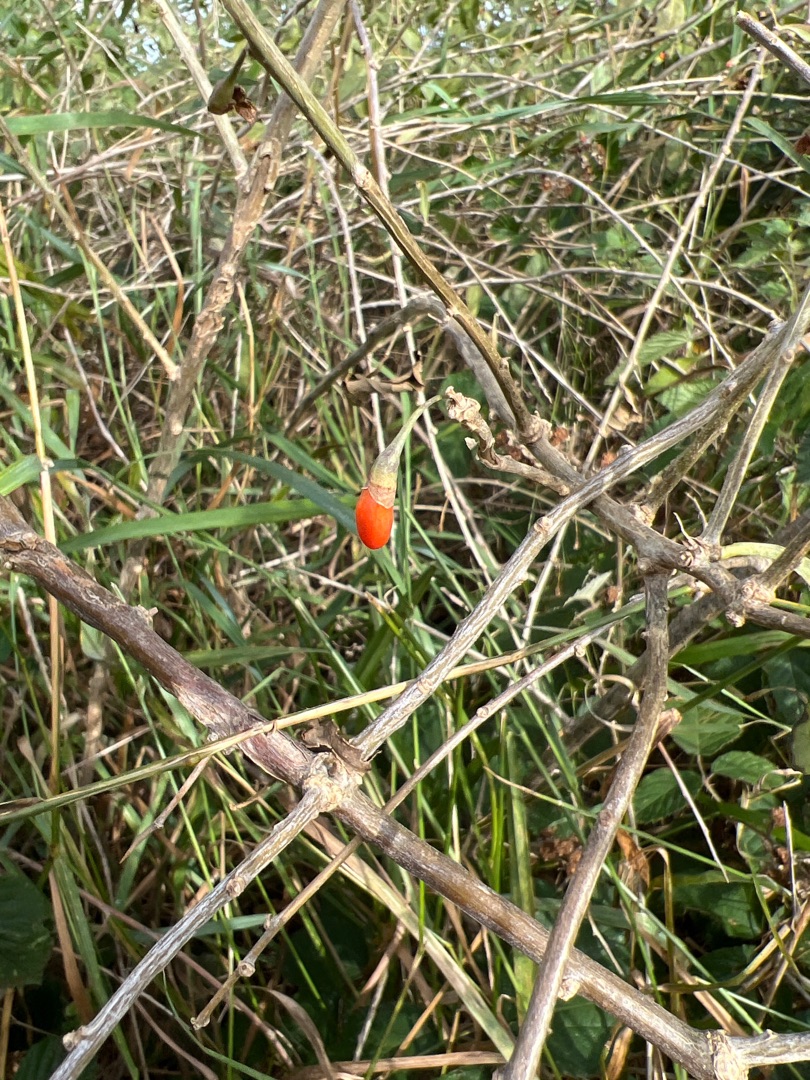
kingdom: Plantae
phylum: Tracheophyta
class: Magnoliopsida
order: Solanales
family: Solanaceae
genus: Lycium
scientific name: Lycium barbarum
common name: Bukketorn
